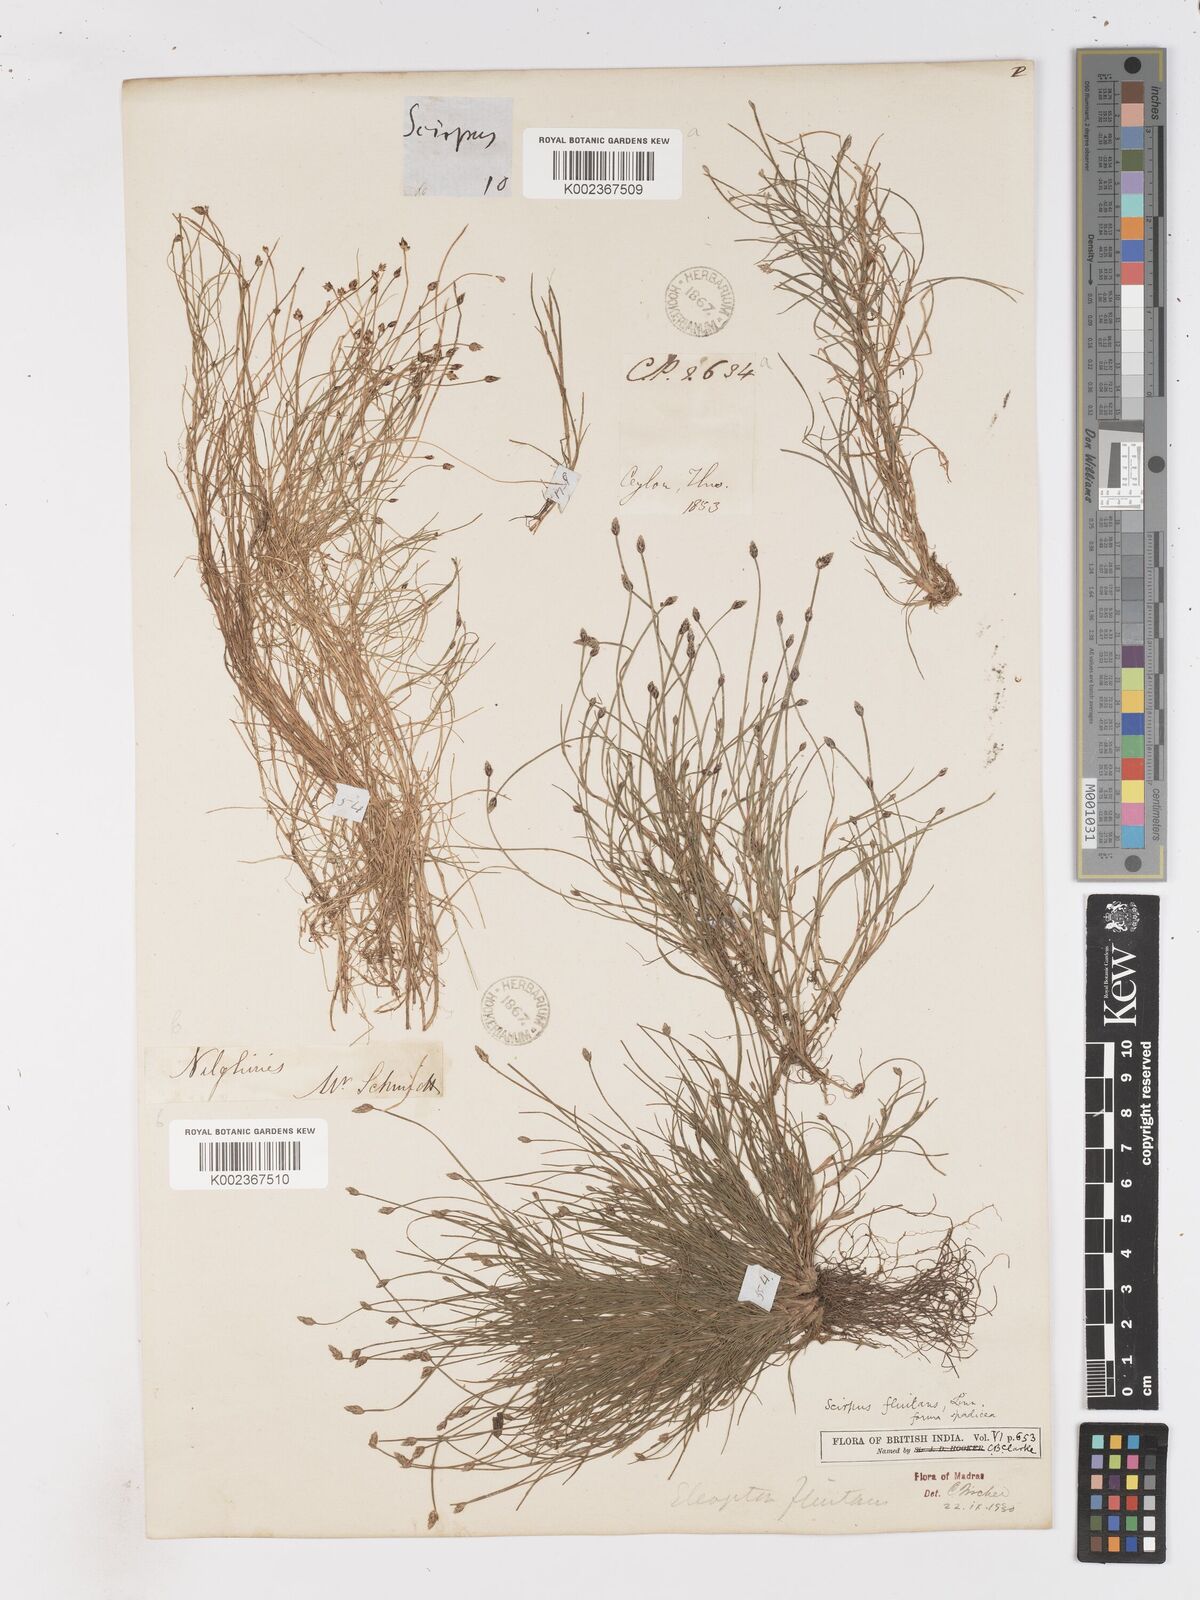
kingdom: Plantae
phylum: Tracheophyta
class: Liliopsida
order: Poales
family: Cyperaceae
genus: Isolepis
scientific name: Isolepis fluitans
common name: Floating club-rush
